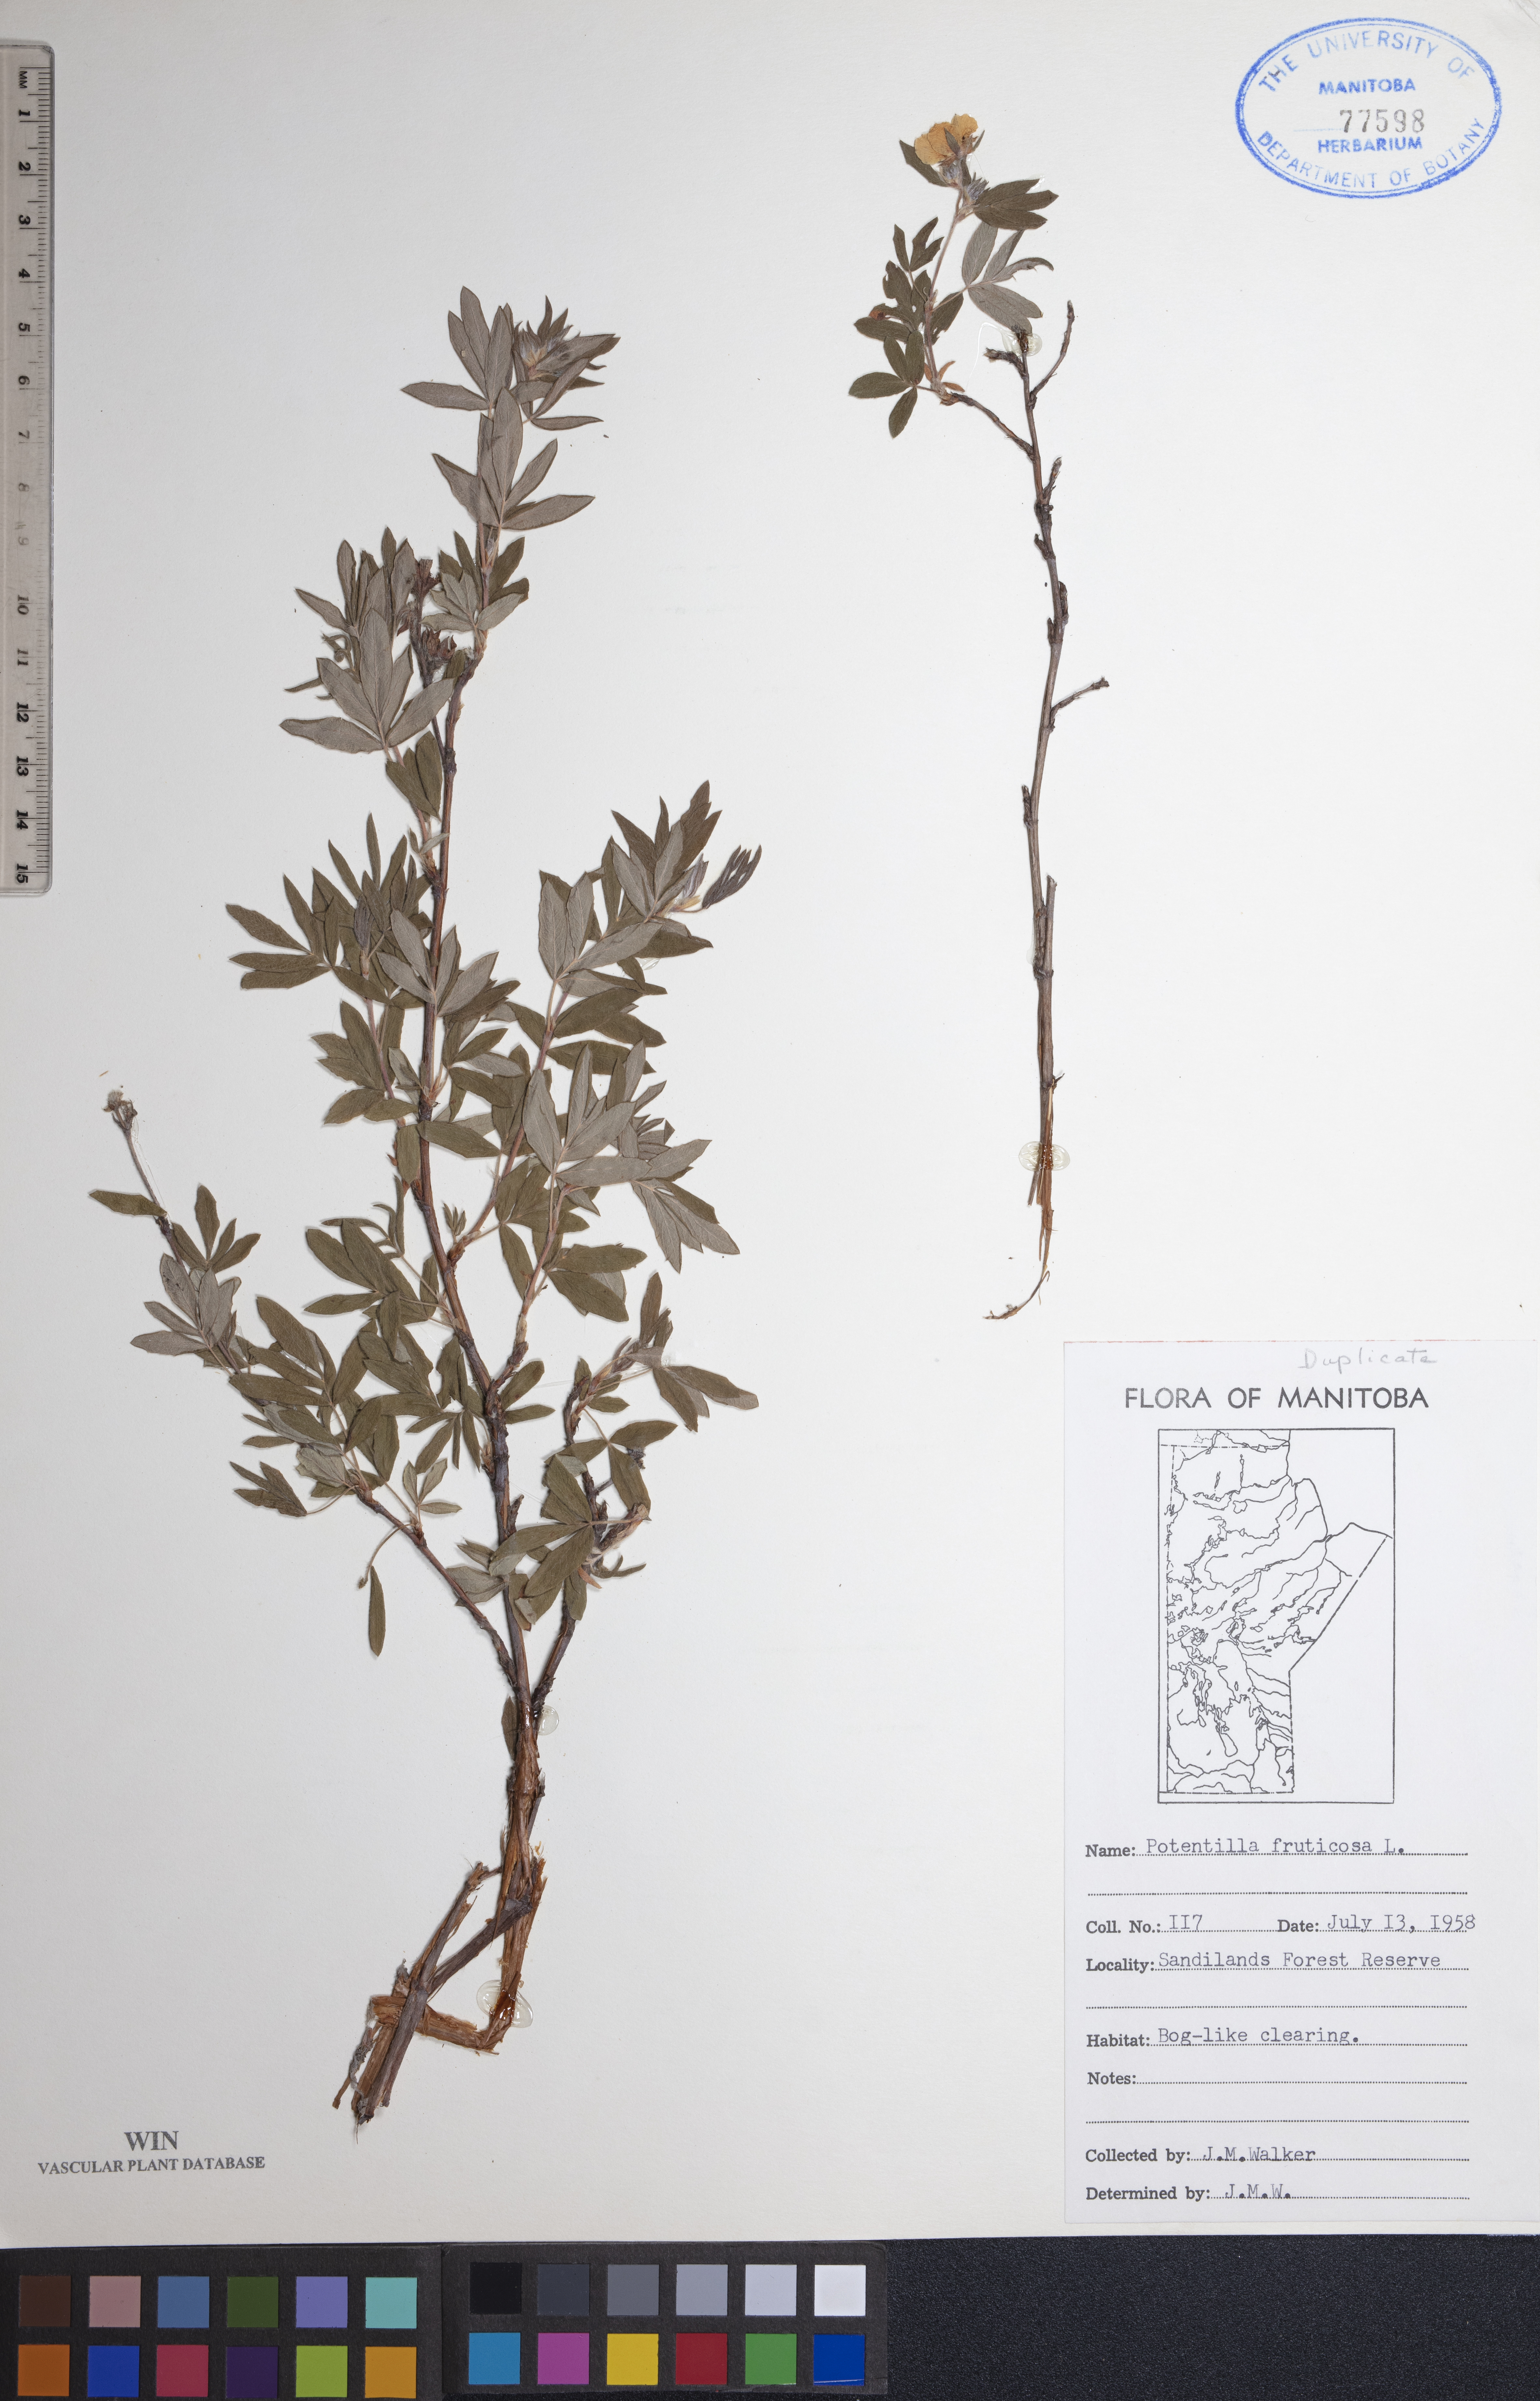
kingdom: Plantae
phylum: Tracheophyta
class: Magnoliopsida
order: Rosales
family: Rosaceae
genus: Dasiphora
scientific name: Dasiphora fruticosa
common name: Shrubby cinquefoil
